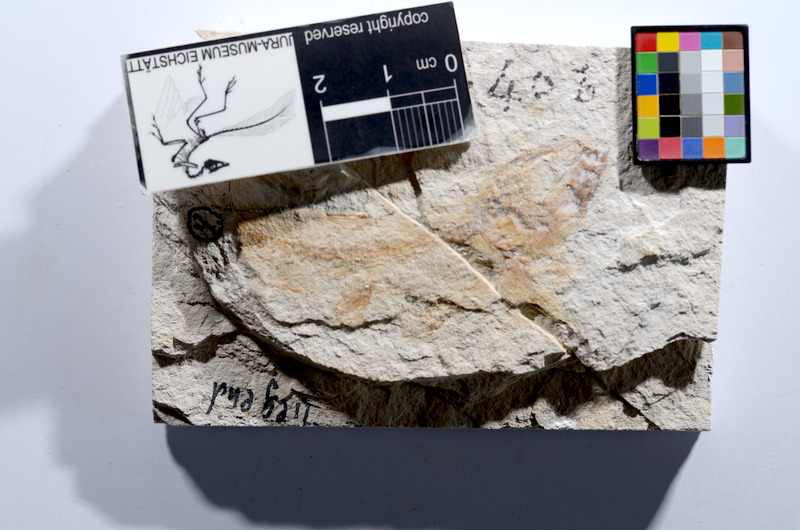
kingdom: Animalia
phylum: Chordata
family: Ascalaboidae
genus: Tharsis
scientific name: Tharsis dubius
